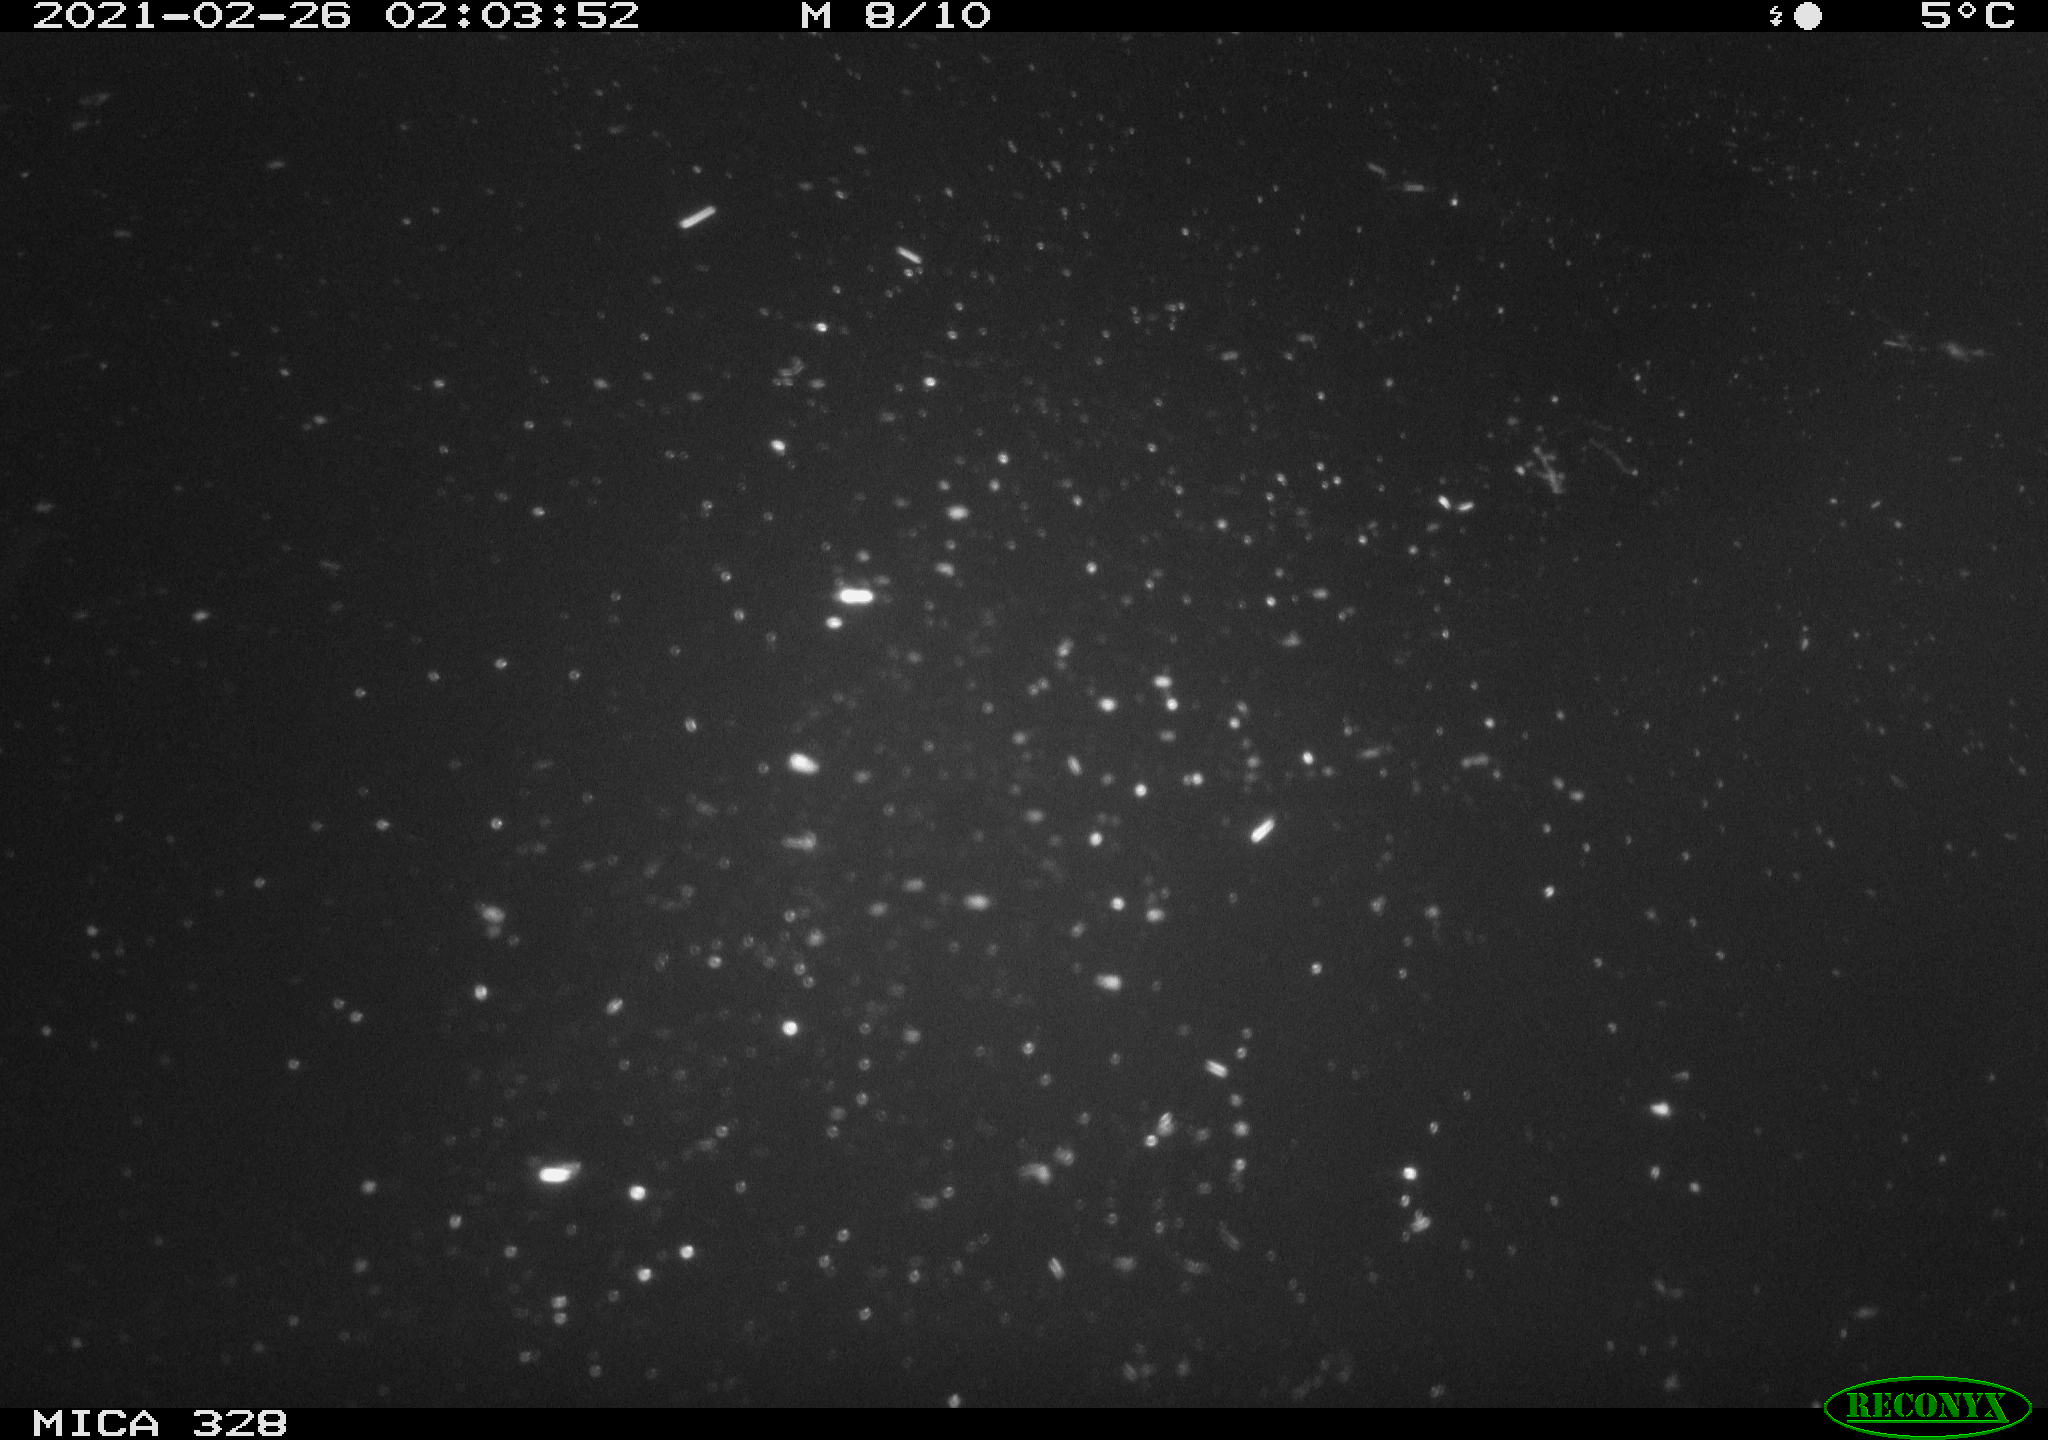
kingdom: Animalia
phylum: Chordata
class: Mammalia
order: Rodentia
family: Cricetidae
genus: Ondatra
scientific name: Ondatra zibethicus
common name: Muskrat
